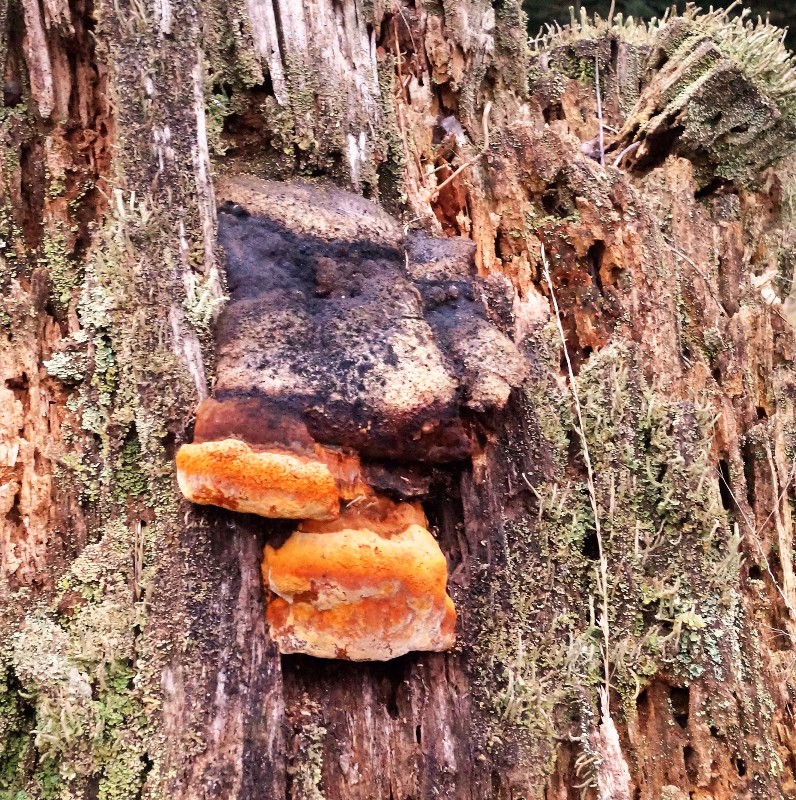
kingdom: Fungi
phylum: Basidiomycota
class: Agaricomycetes
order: Gloeophyllales
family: Gloeophyllaceae
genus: Gloeophyllum
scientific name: Gloeophyllum odoratum
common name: duftende korkhat
